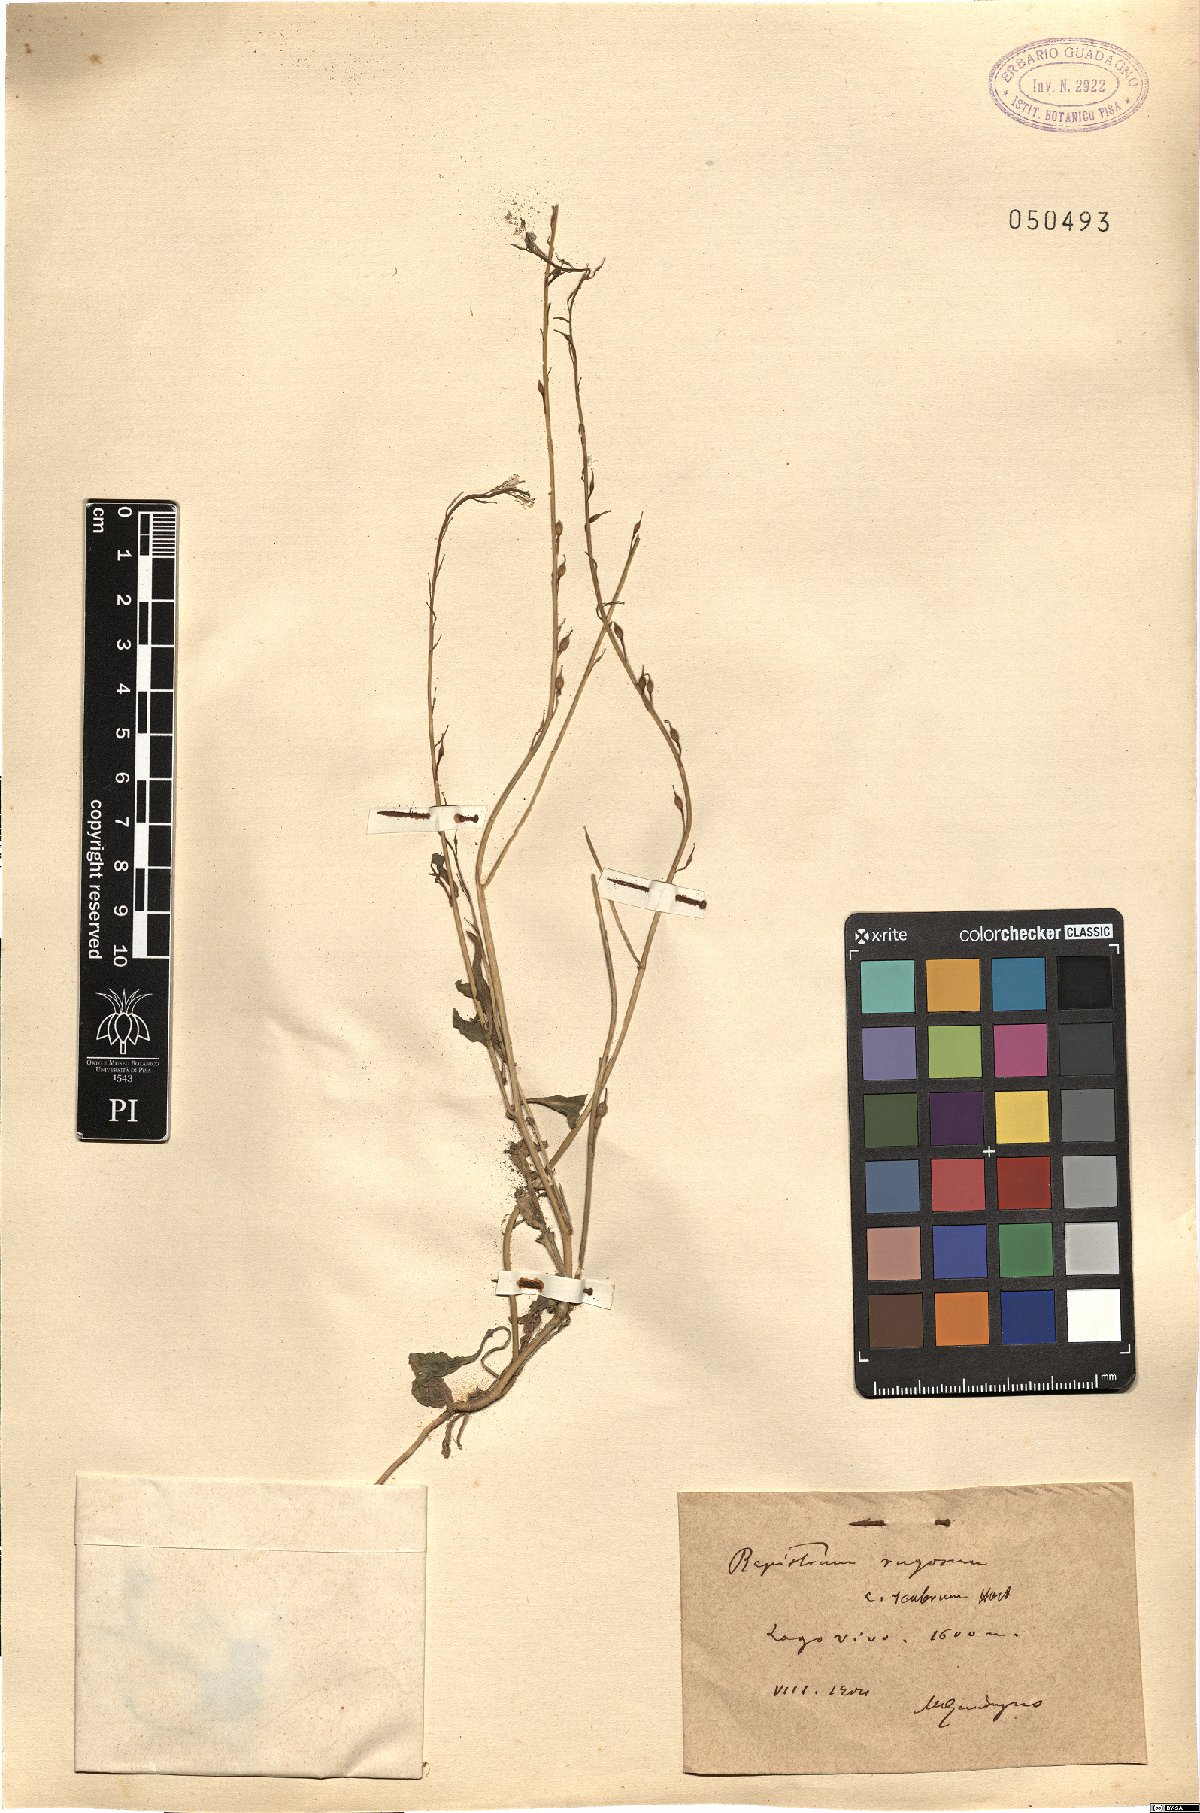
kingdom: Plantae
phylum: Tracheophyta
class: Magnoliopsida
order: Brassicales
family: Brassicaceae
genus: Rapistrum
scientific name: Rapistrum rugosum
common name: Annual bastardcabbage
